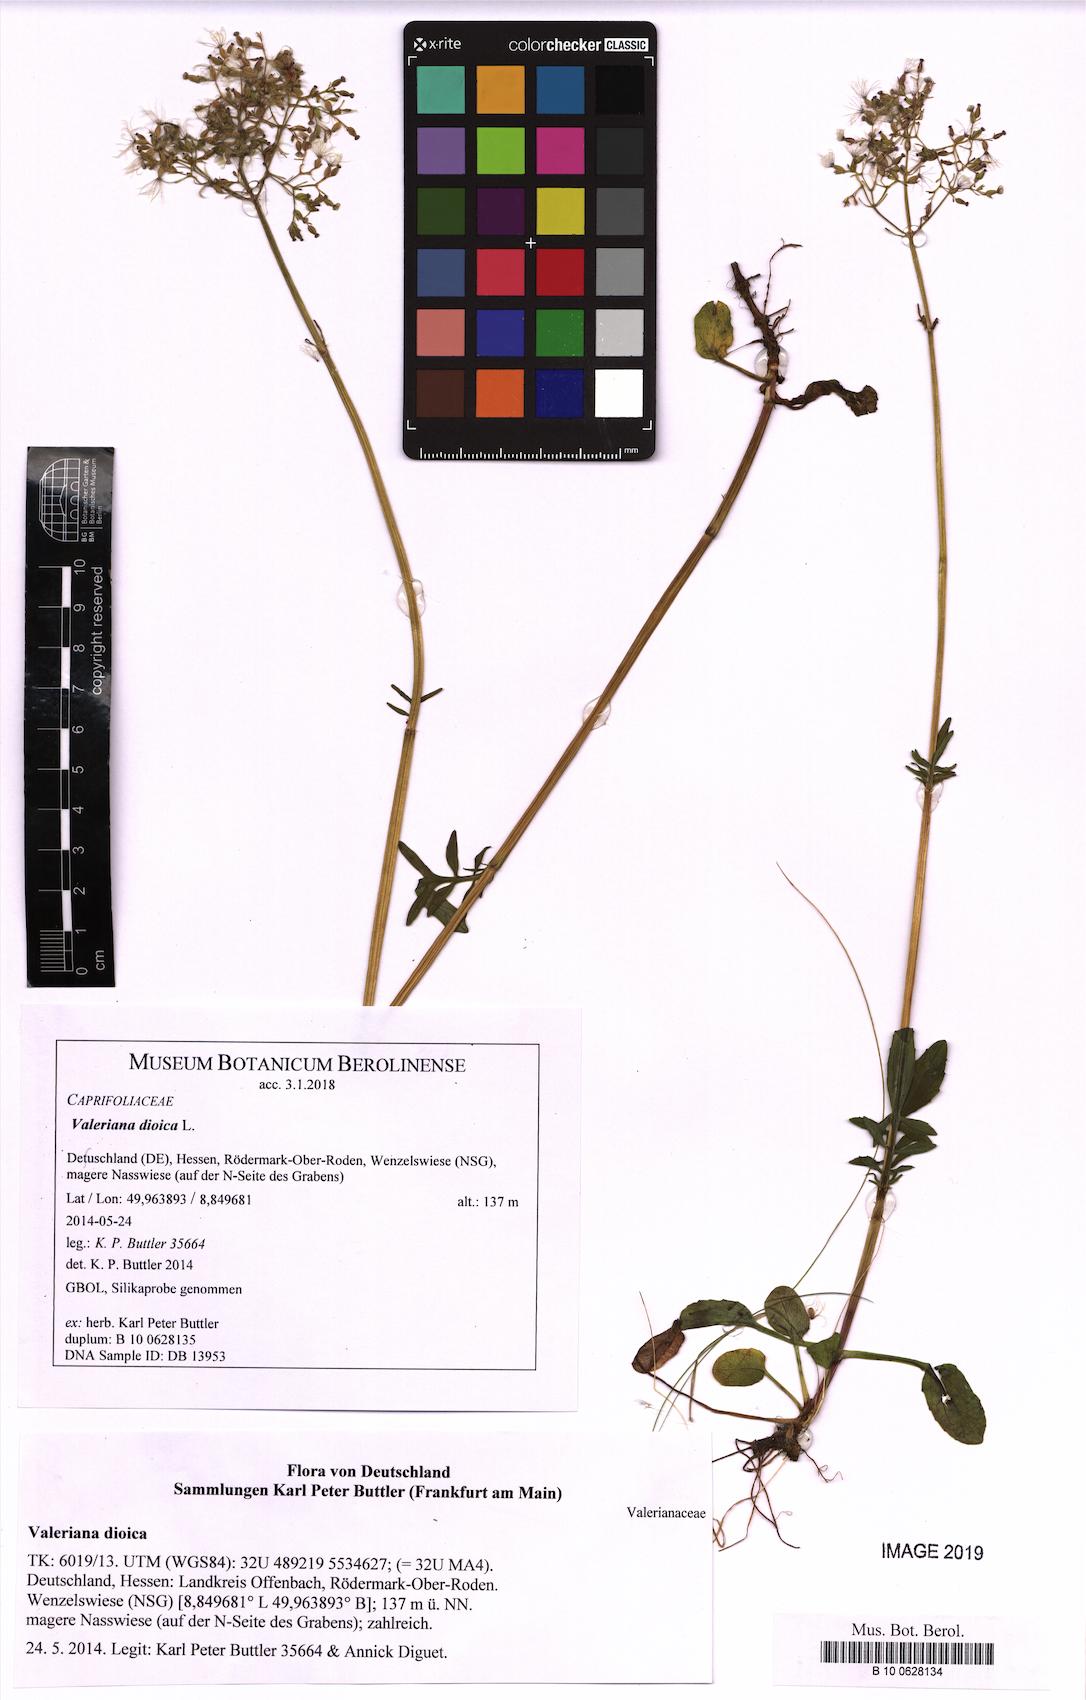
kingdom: Plantae
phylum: Tracheophyta
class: Magnoliopsida
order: Dipsacales
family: Caprifoliaceae
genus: Valeriana
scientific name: Valeriana dioica
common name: Marsh valerian
